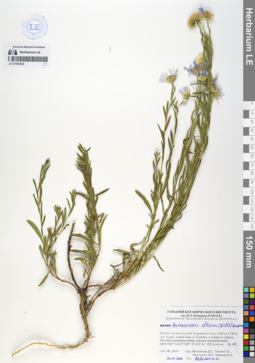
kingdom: Plantae
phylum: Tracheophyta
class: Magnoliopsida
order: Asterales
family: Asteraceae
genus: Heteropappus
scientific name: Heteropappus altaicus
